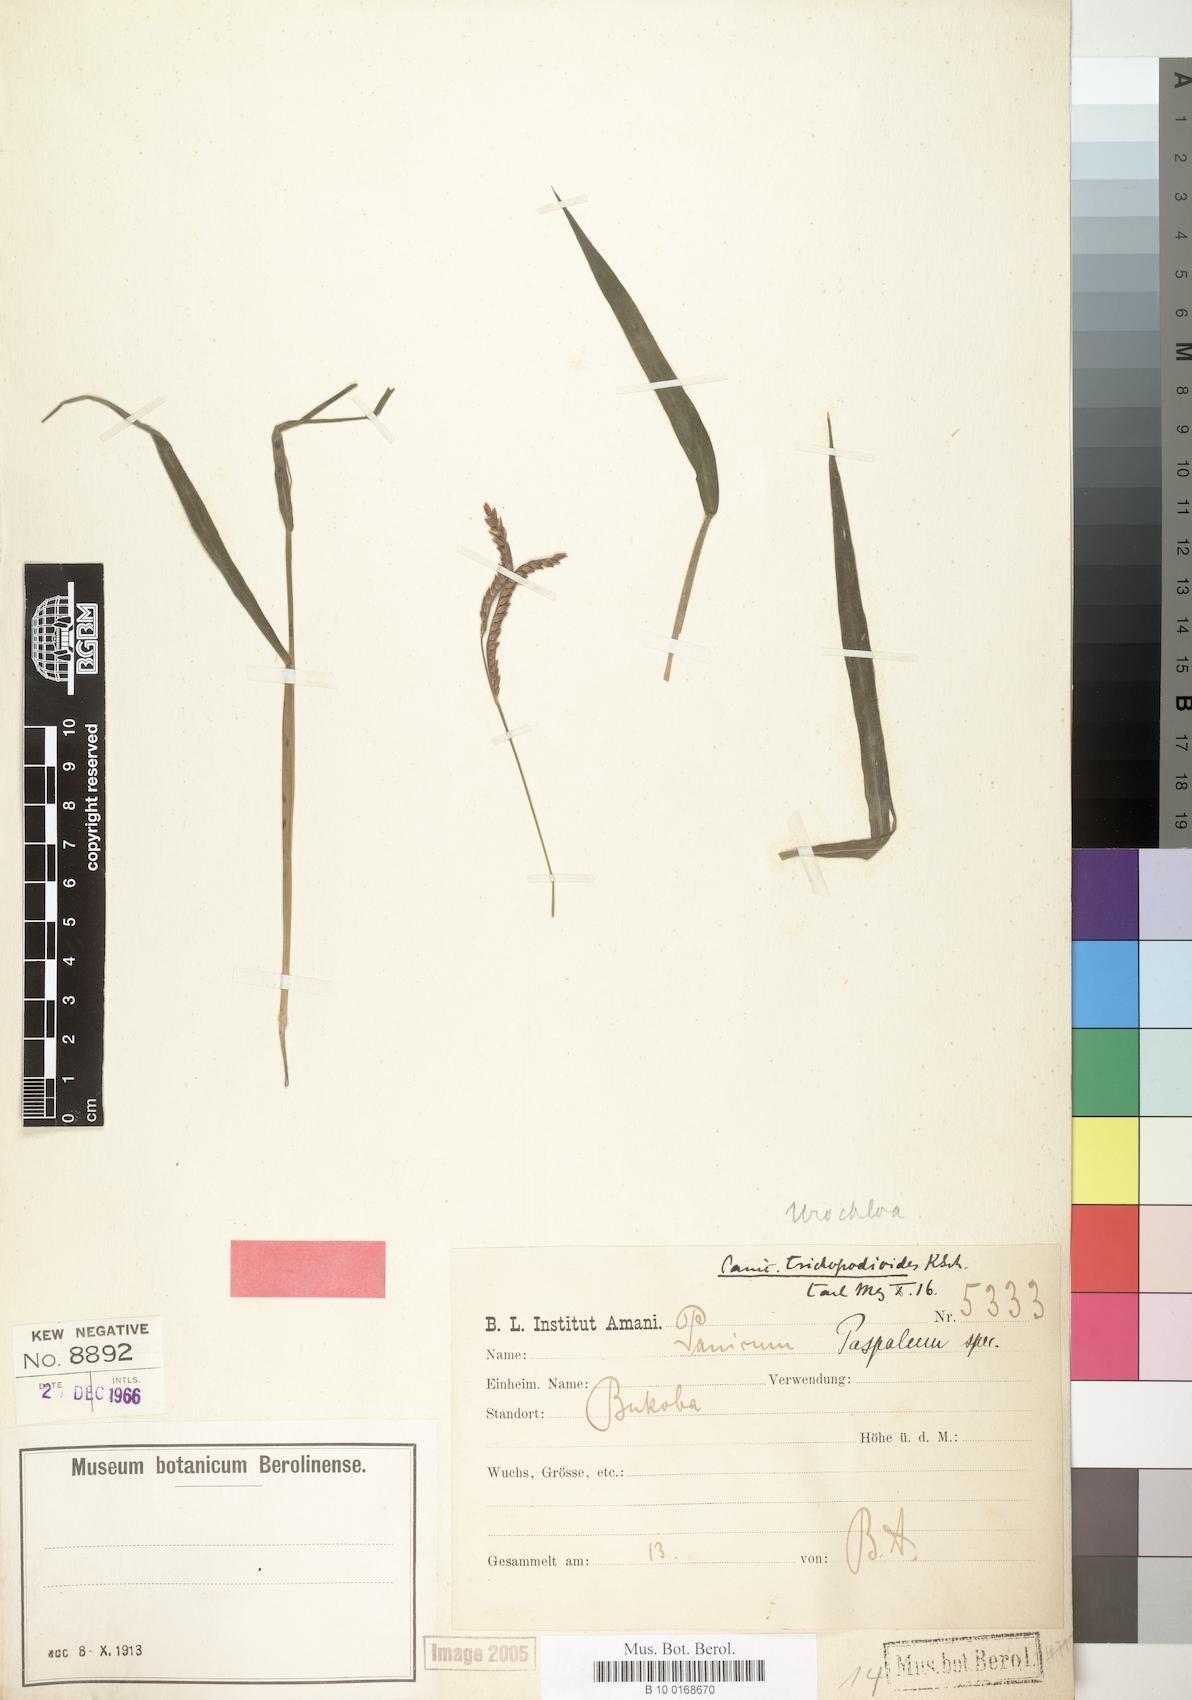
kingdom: Plantae
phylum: Tracheophyta
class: Liliopsida
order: Poales
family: Poaceae
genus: Urochloa
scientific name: Urochloa trichopodioides
